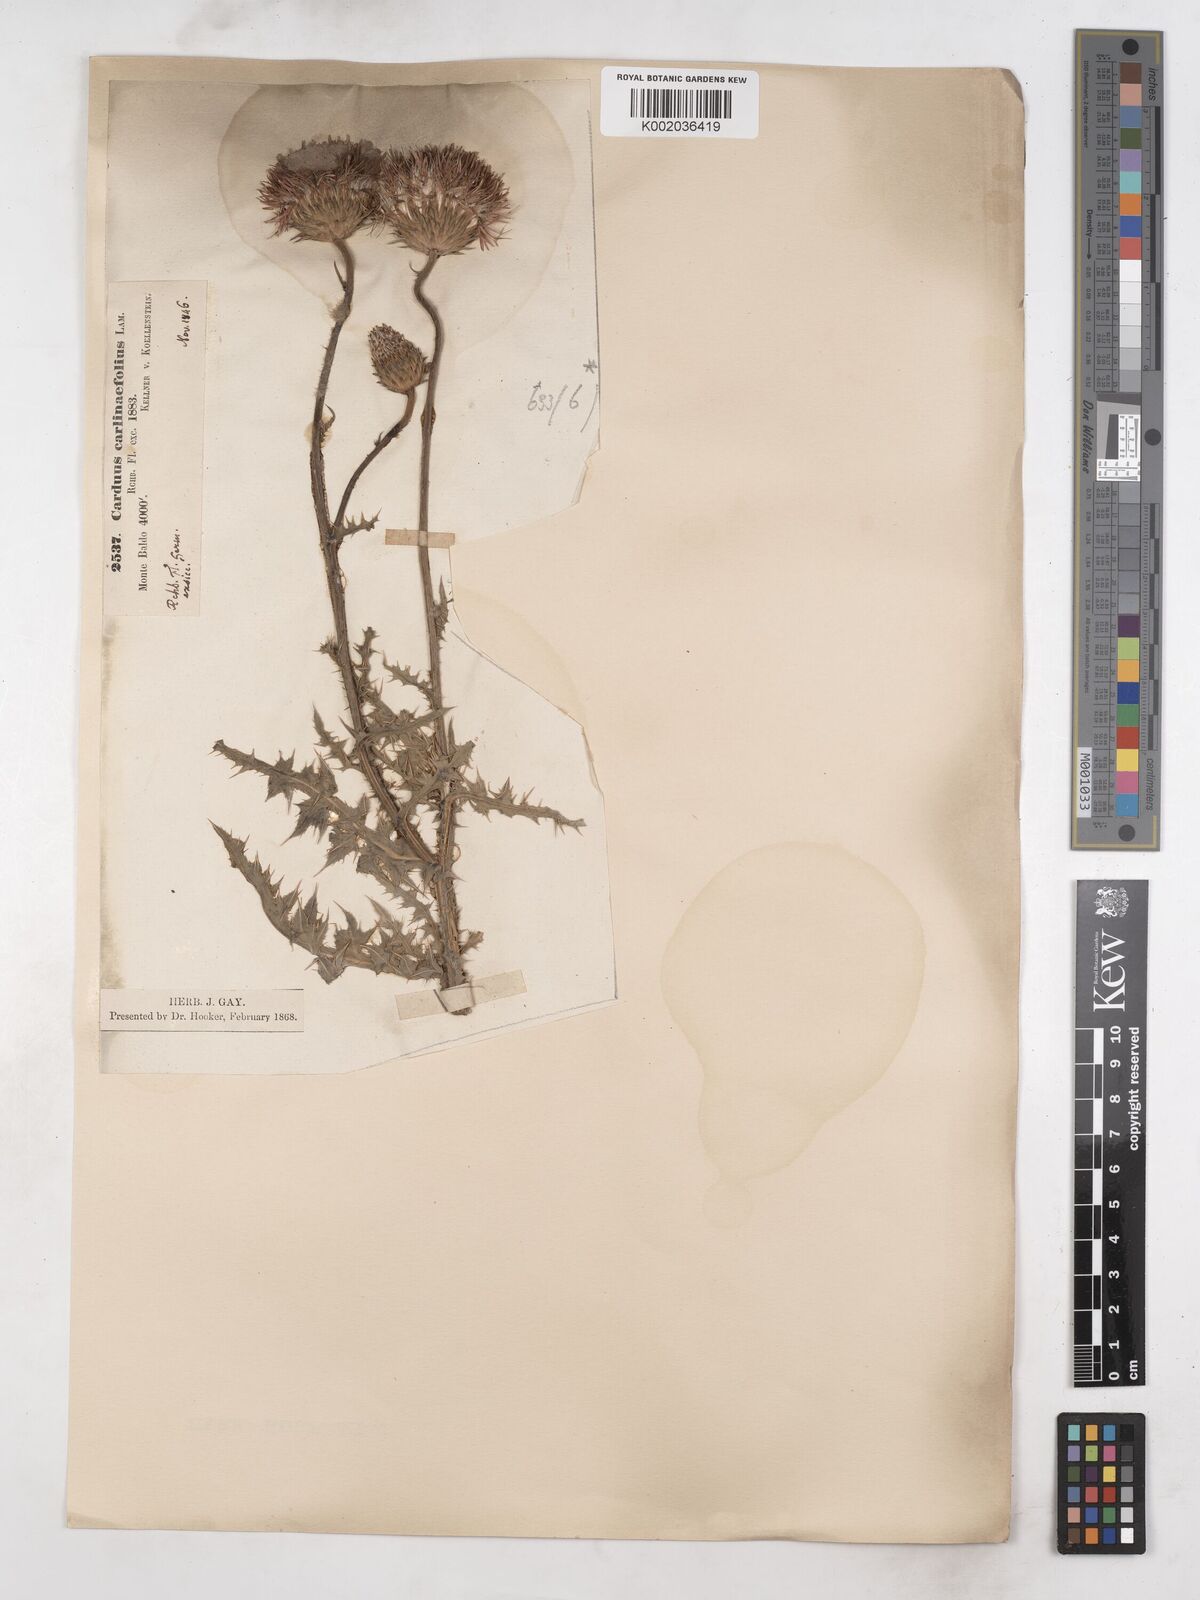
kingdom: Plantae
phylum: Tracheophyta
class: Magnoliopsida
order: Asterales
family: Asteraceae
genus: Carduus
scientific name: Carduus carlinifolius
